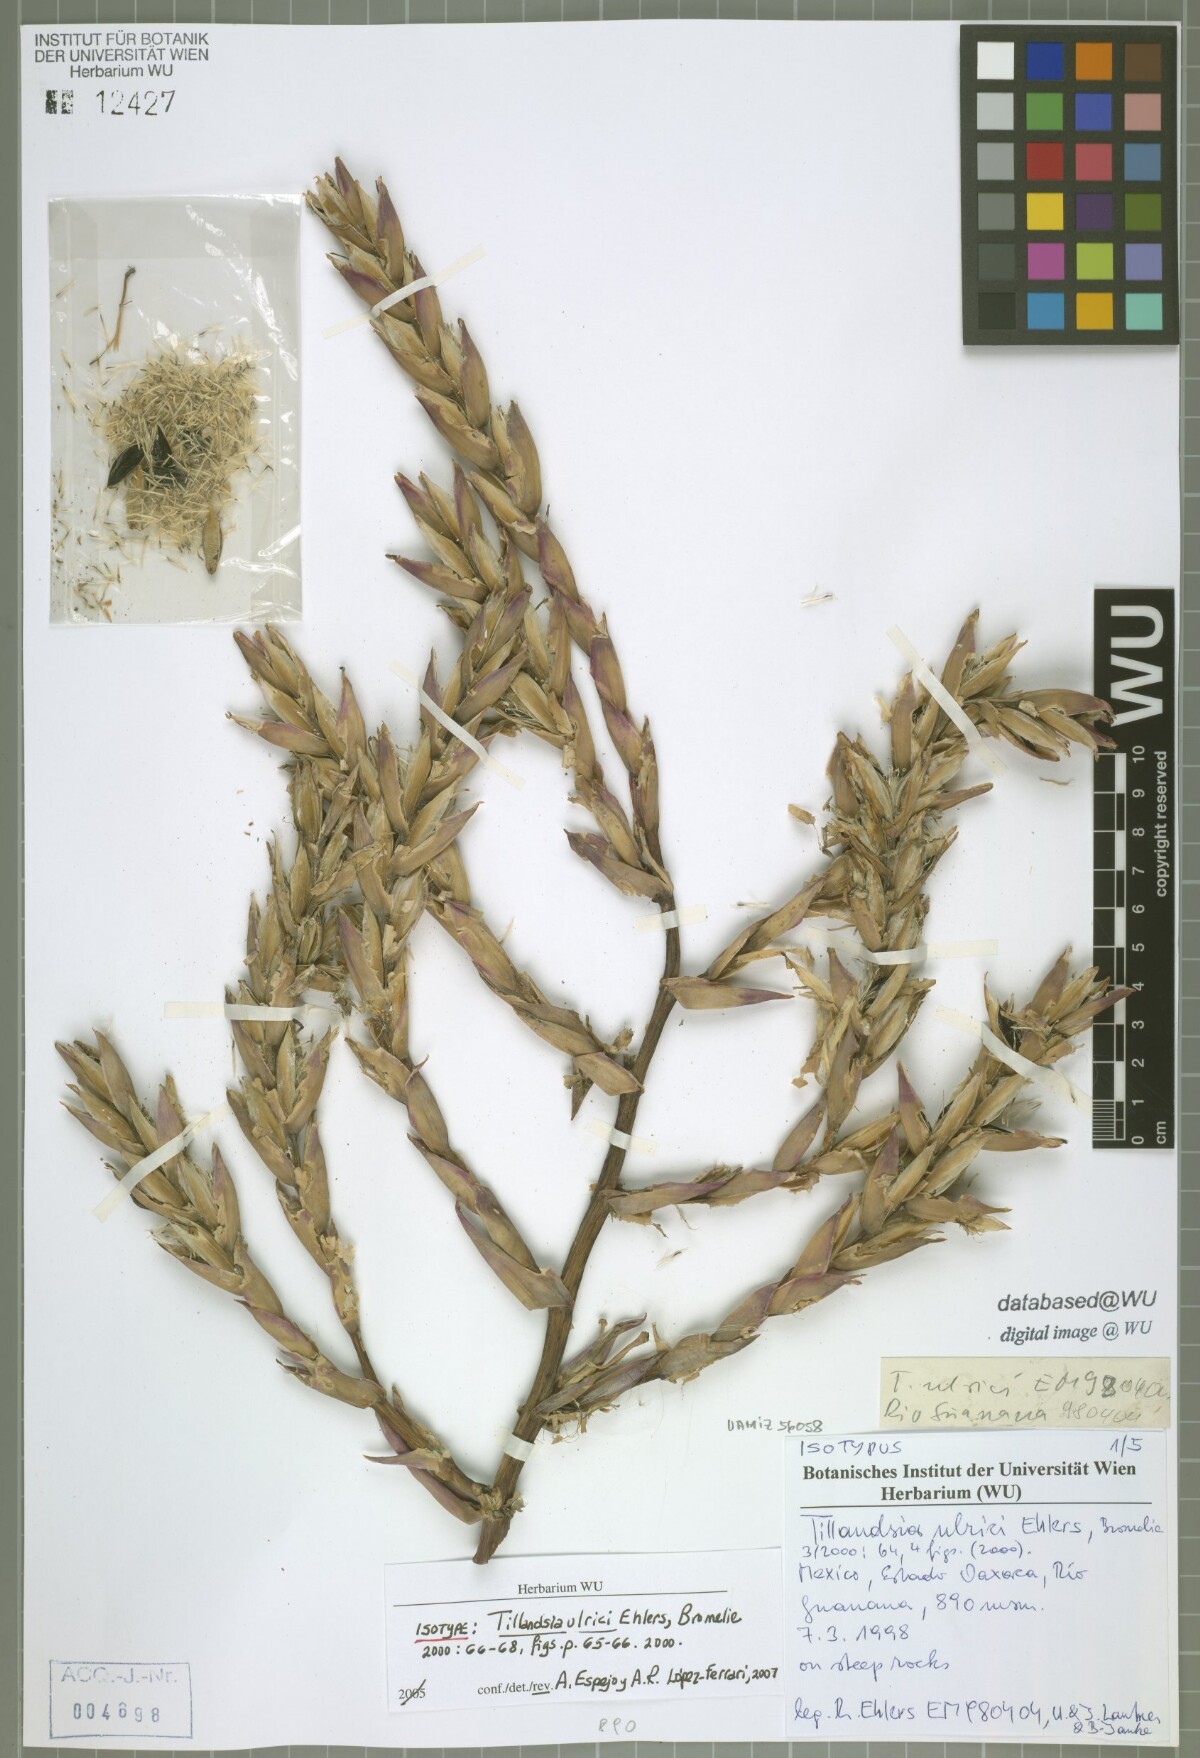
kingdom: Plantae
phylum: Tracheophyta
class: Liliopsida
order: Poales
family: Bromeliaceae
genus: Tillandsia
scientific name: Tillandsia ulrici
